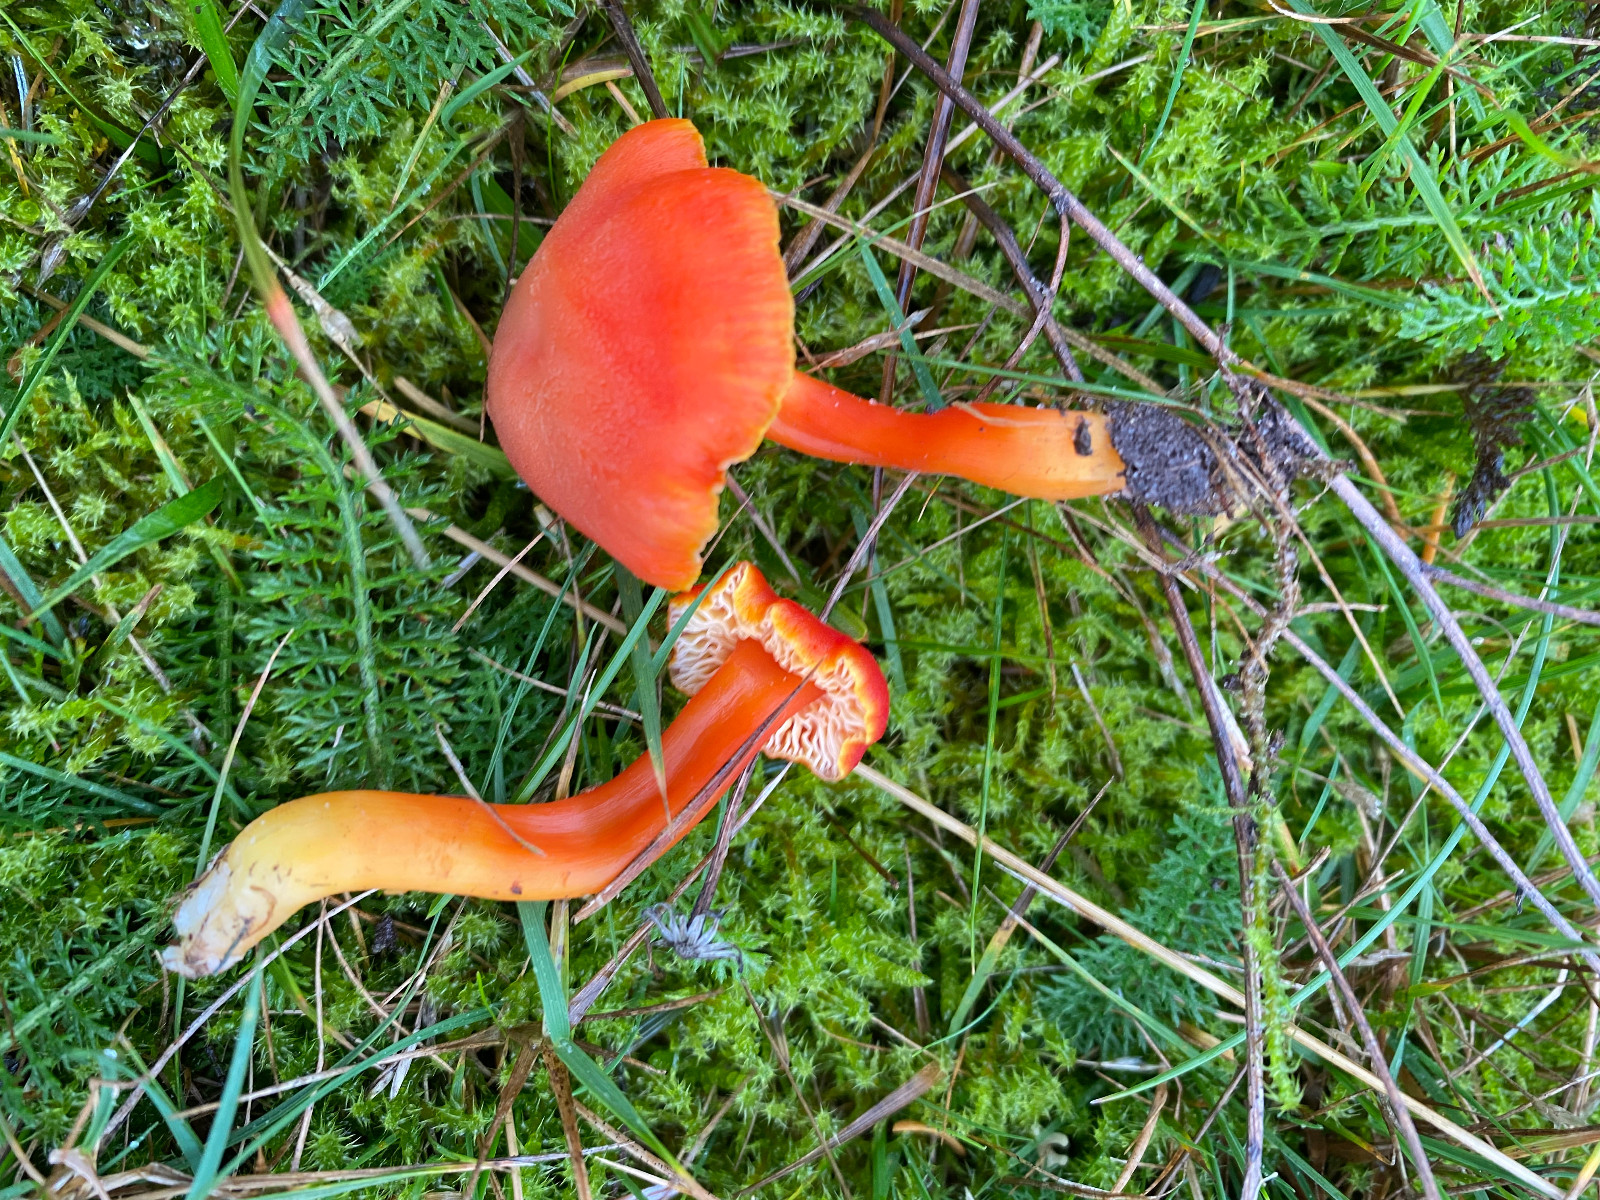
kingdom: Fungi
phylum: Basidiomycota
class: Agaricomycetes
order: Agaricales
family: Hygrophoraceae
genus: Hygrocybe
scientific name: Hygrocybe miniata
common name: mønje-vokshat
